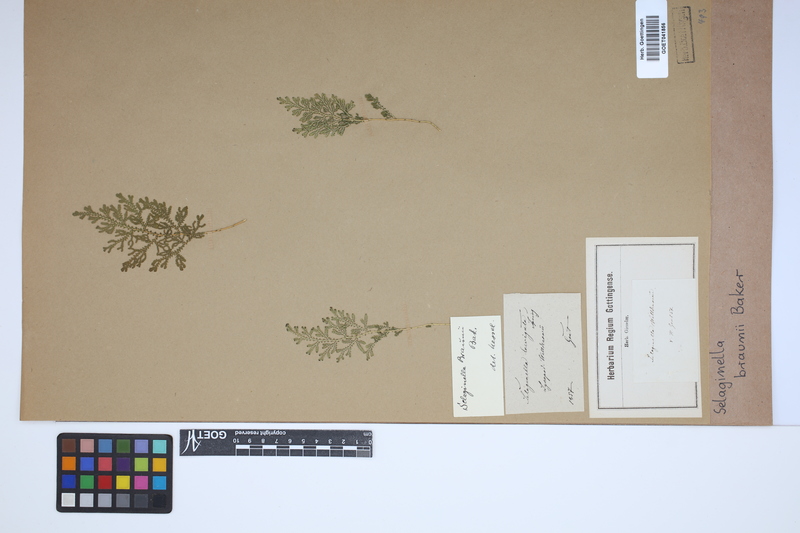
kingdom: Plantae
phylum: Tracheophyta
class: Lycopodiopsida
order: Selaginellales
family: Selaginellaceae
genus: Selaginella
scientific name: Selaginella braunii
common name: Braun's spikemoss
